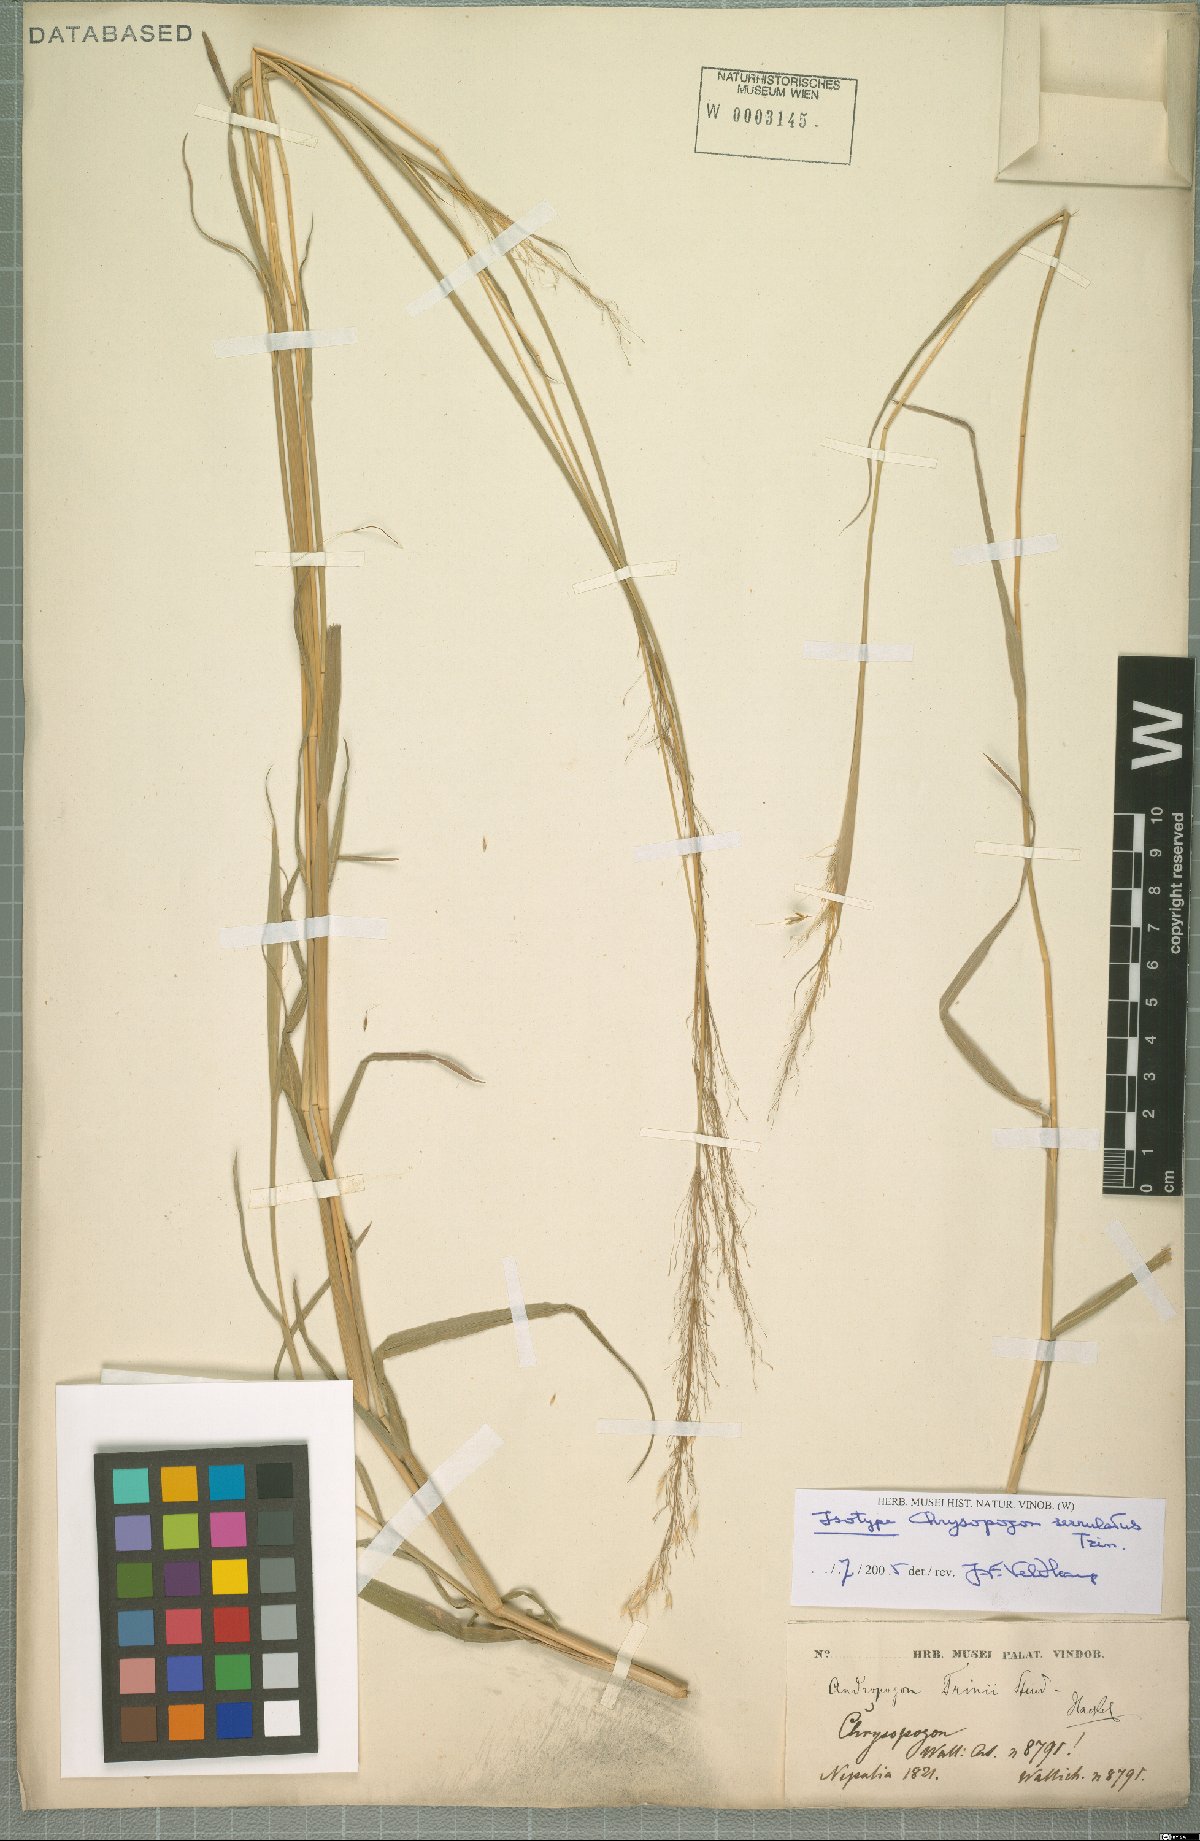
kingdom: Plantae
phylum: Tracheophyta
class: Liliopsida
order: Poales
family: Poaceae
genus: Chrysopogon
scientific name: Chrysopogon serrulatus
